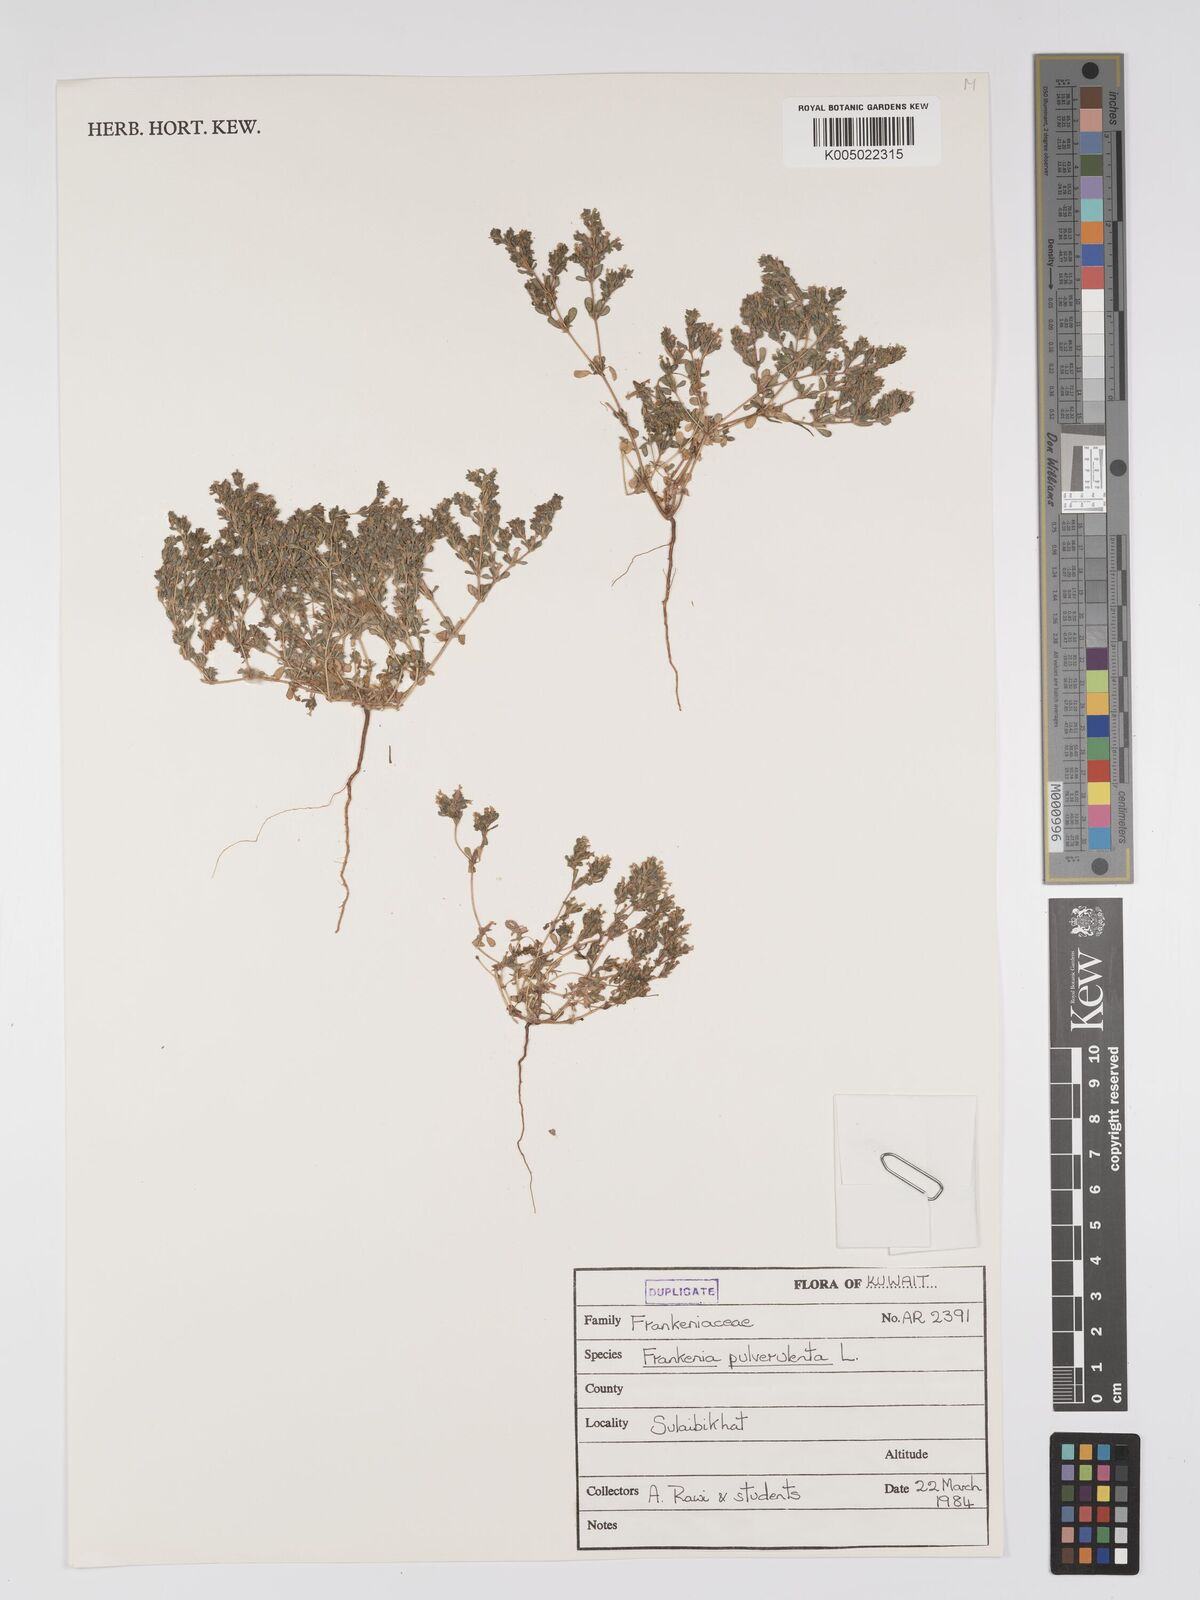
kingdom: Plantae
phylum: Tracheophyta
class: Magnoliopsida
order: Caryophyllales
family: Frankeniaceae
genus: Frankenia
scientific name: Frankenia pulverulenta
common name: European seaheath
